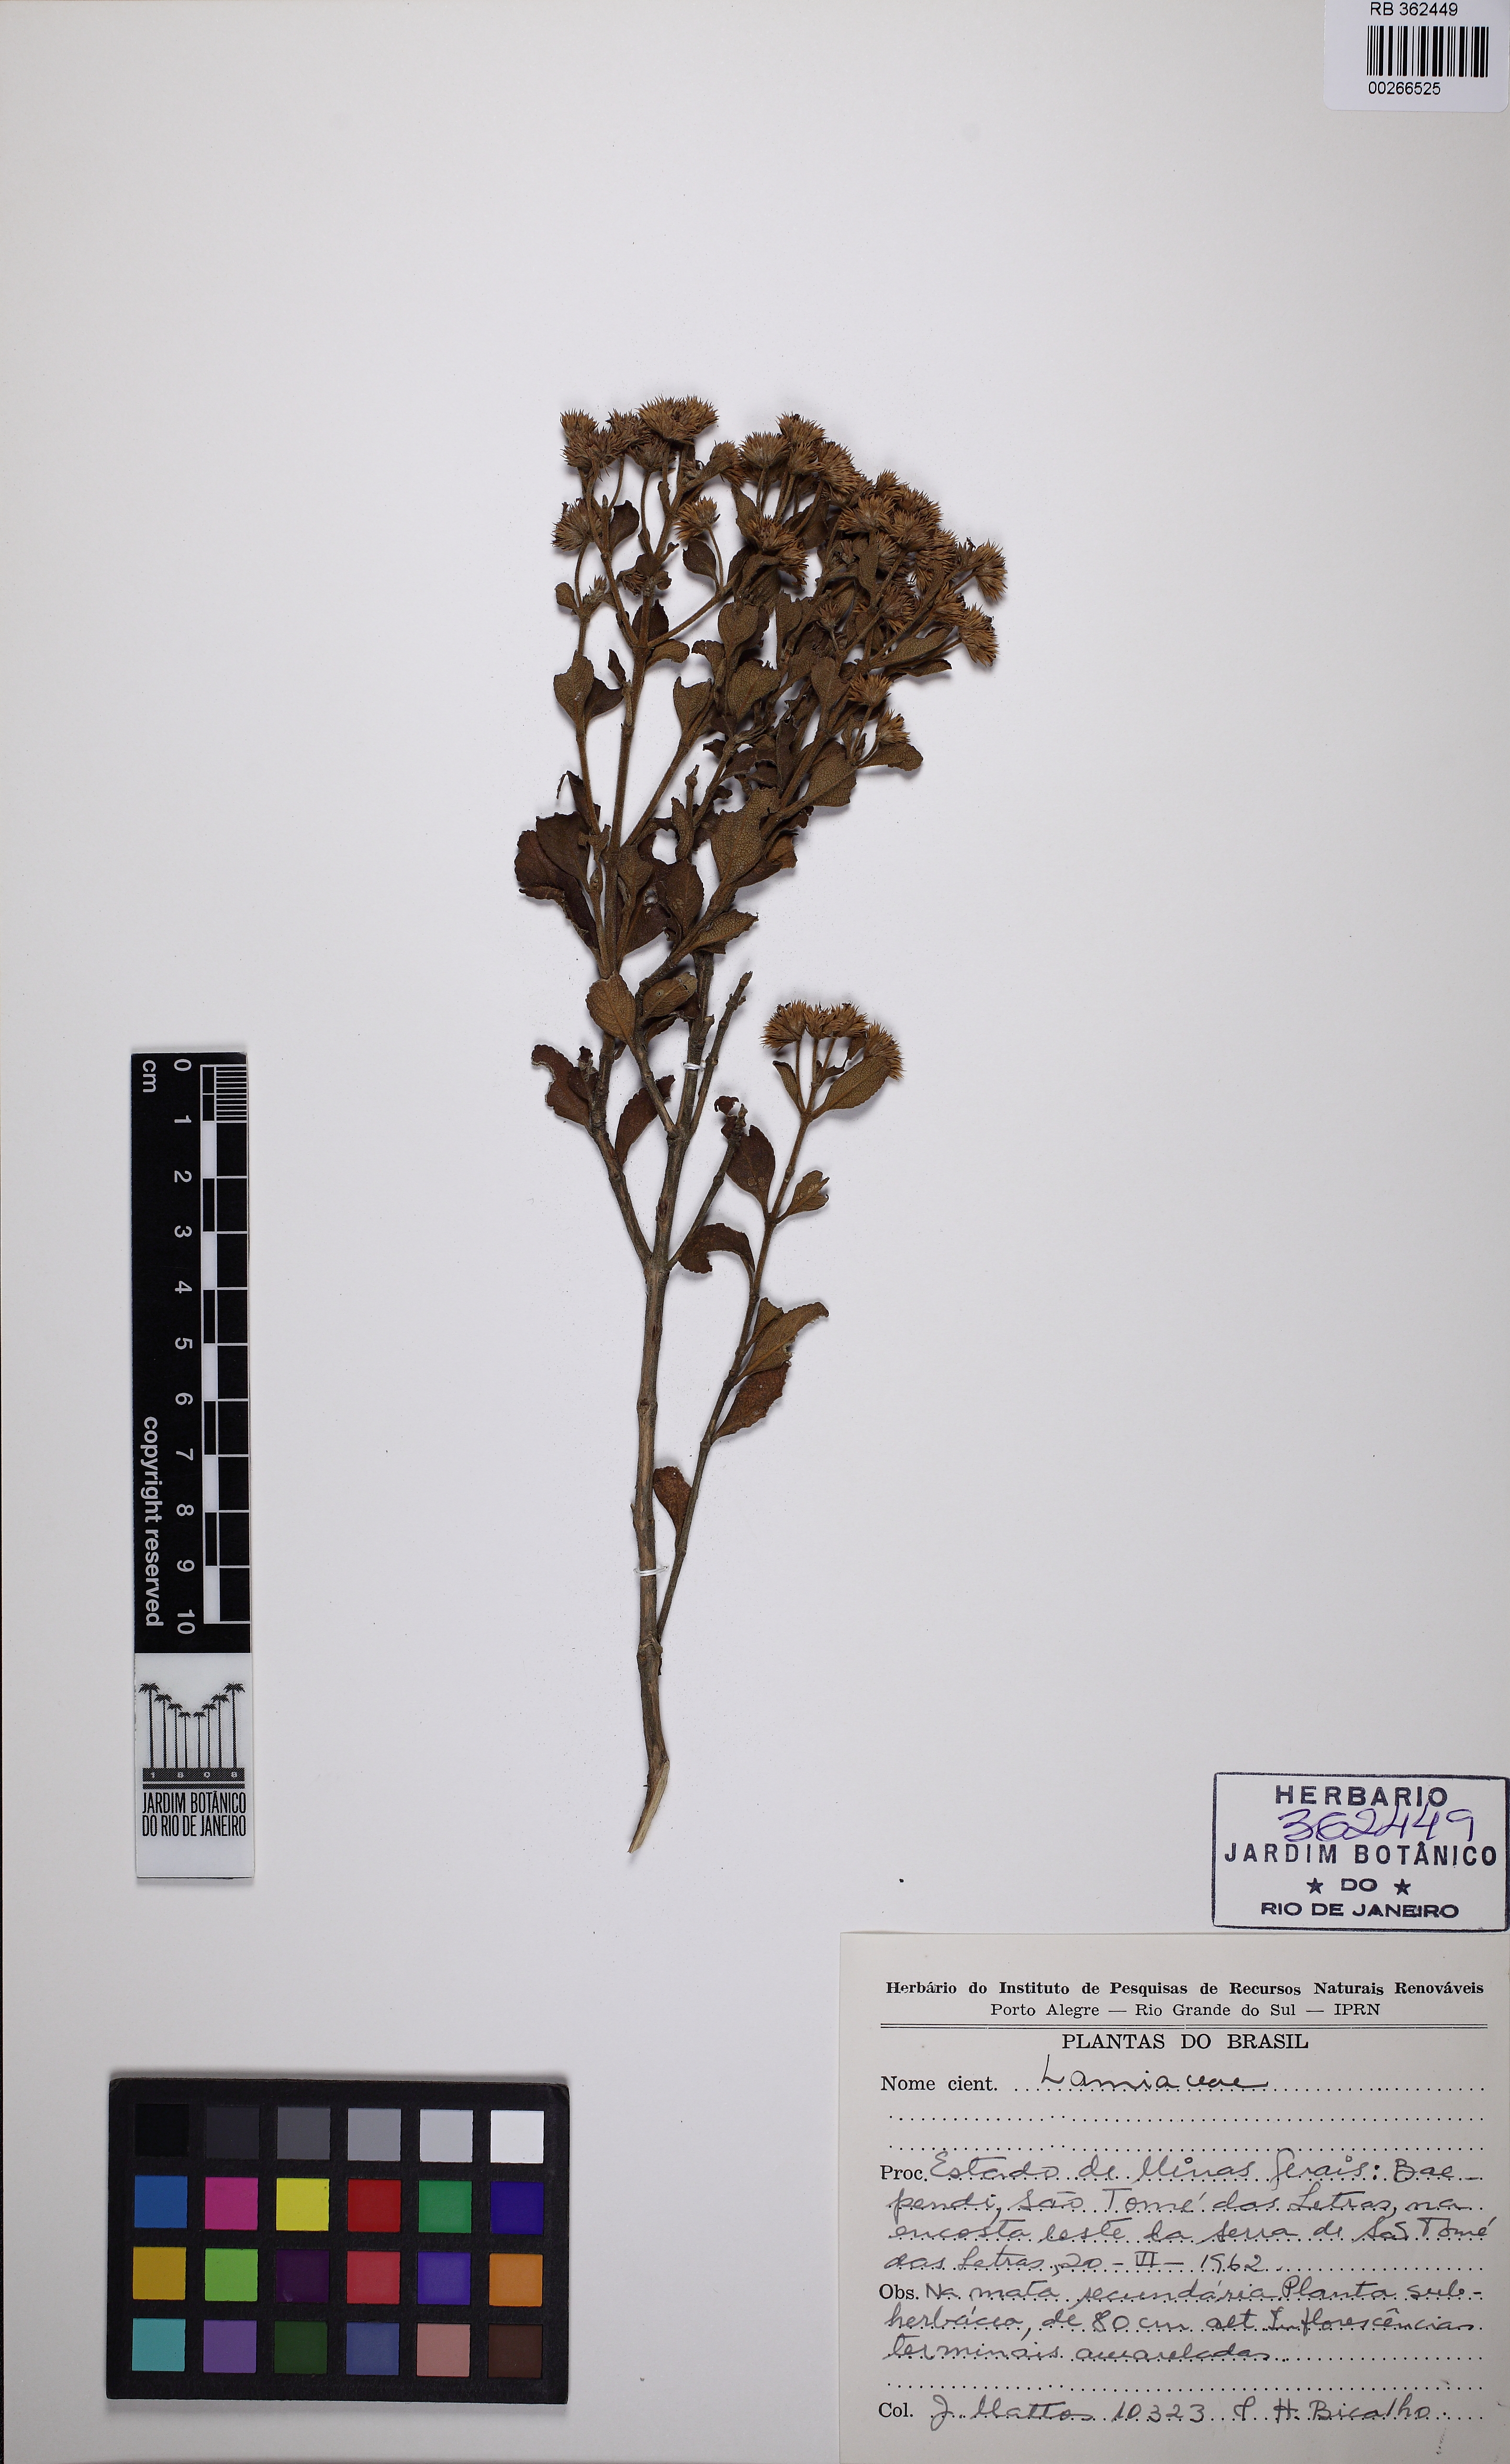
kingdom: Plantae
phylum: Tracheophyta
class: Magnoliopsida
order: Lamiales
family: Lamiaceae
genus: Hyptis
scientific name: Hyptis
